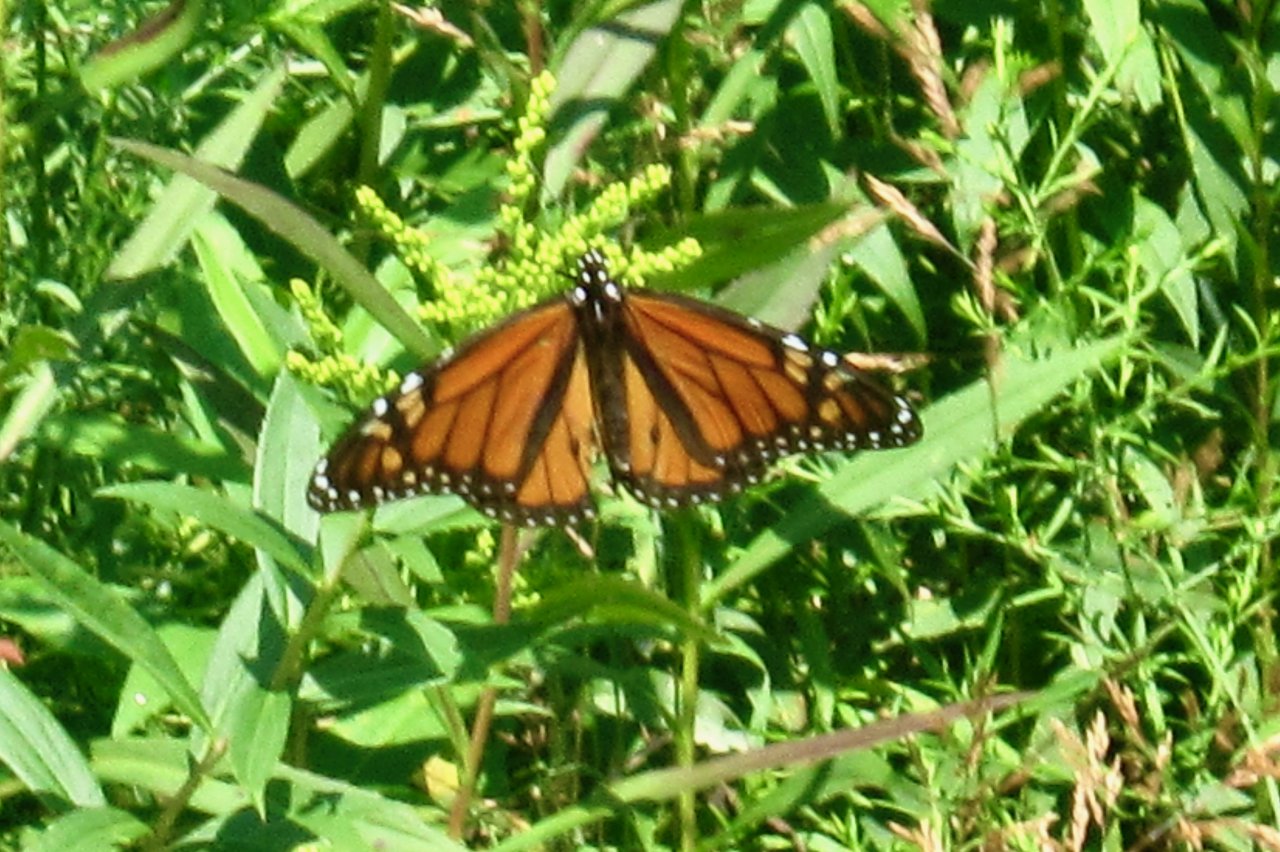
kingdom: Animalia
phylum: Arthropoda
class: Insecta
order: Lepidoptera
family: Nymphalidae
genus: Danaus
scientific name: Danaus plexippus
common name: Monarch
